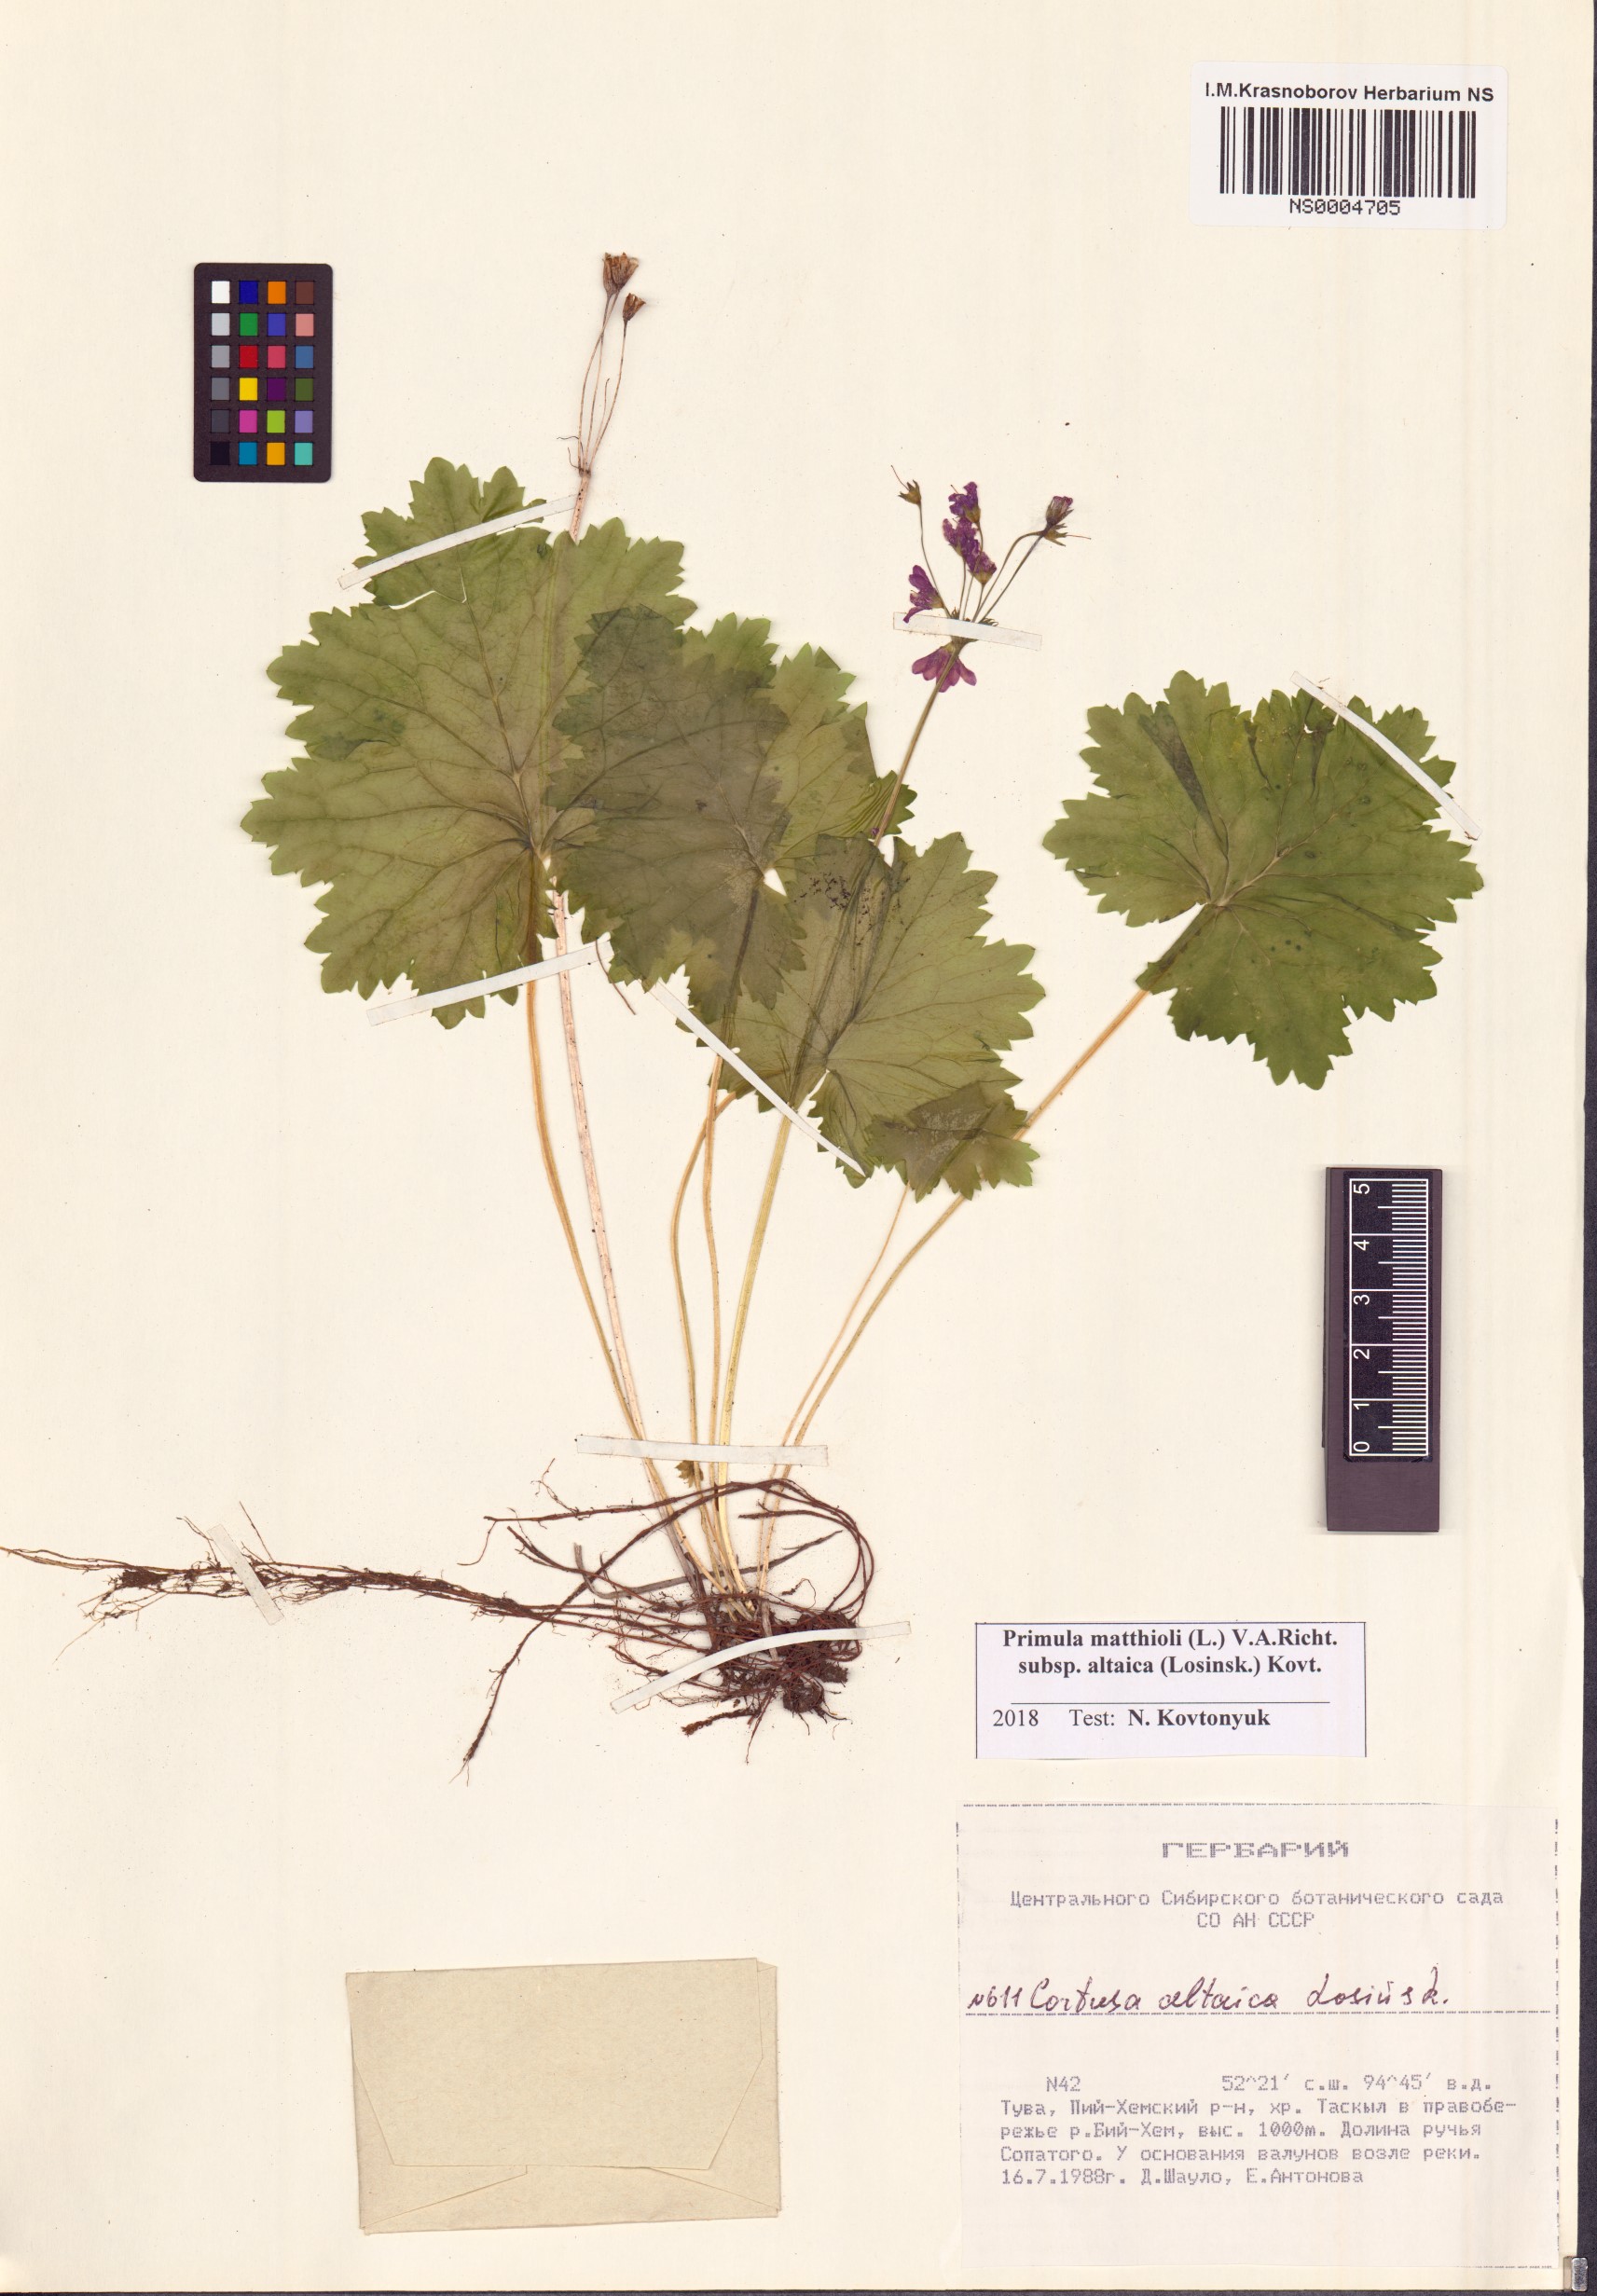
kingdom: Plantae
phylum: Tracheophyta
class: Magnoliopsida
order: Ericales
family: Primulaceae
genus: Primula
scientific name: Primula matthioli
